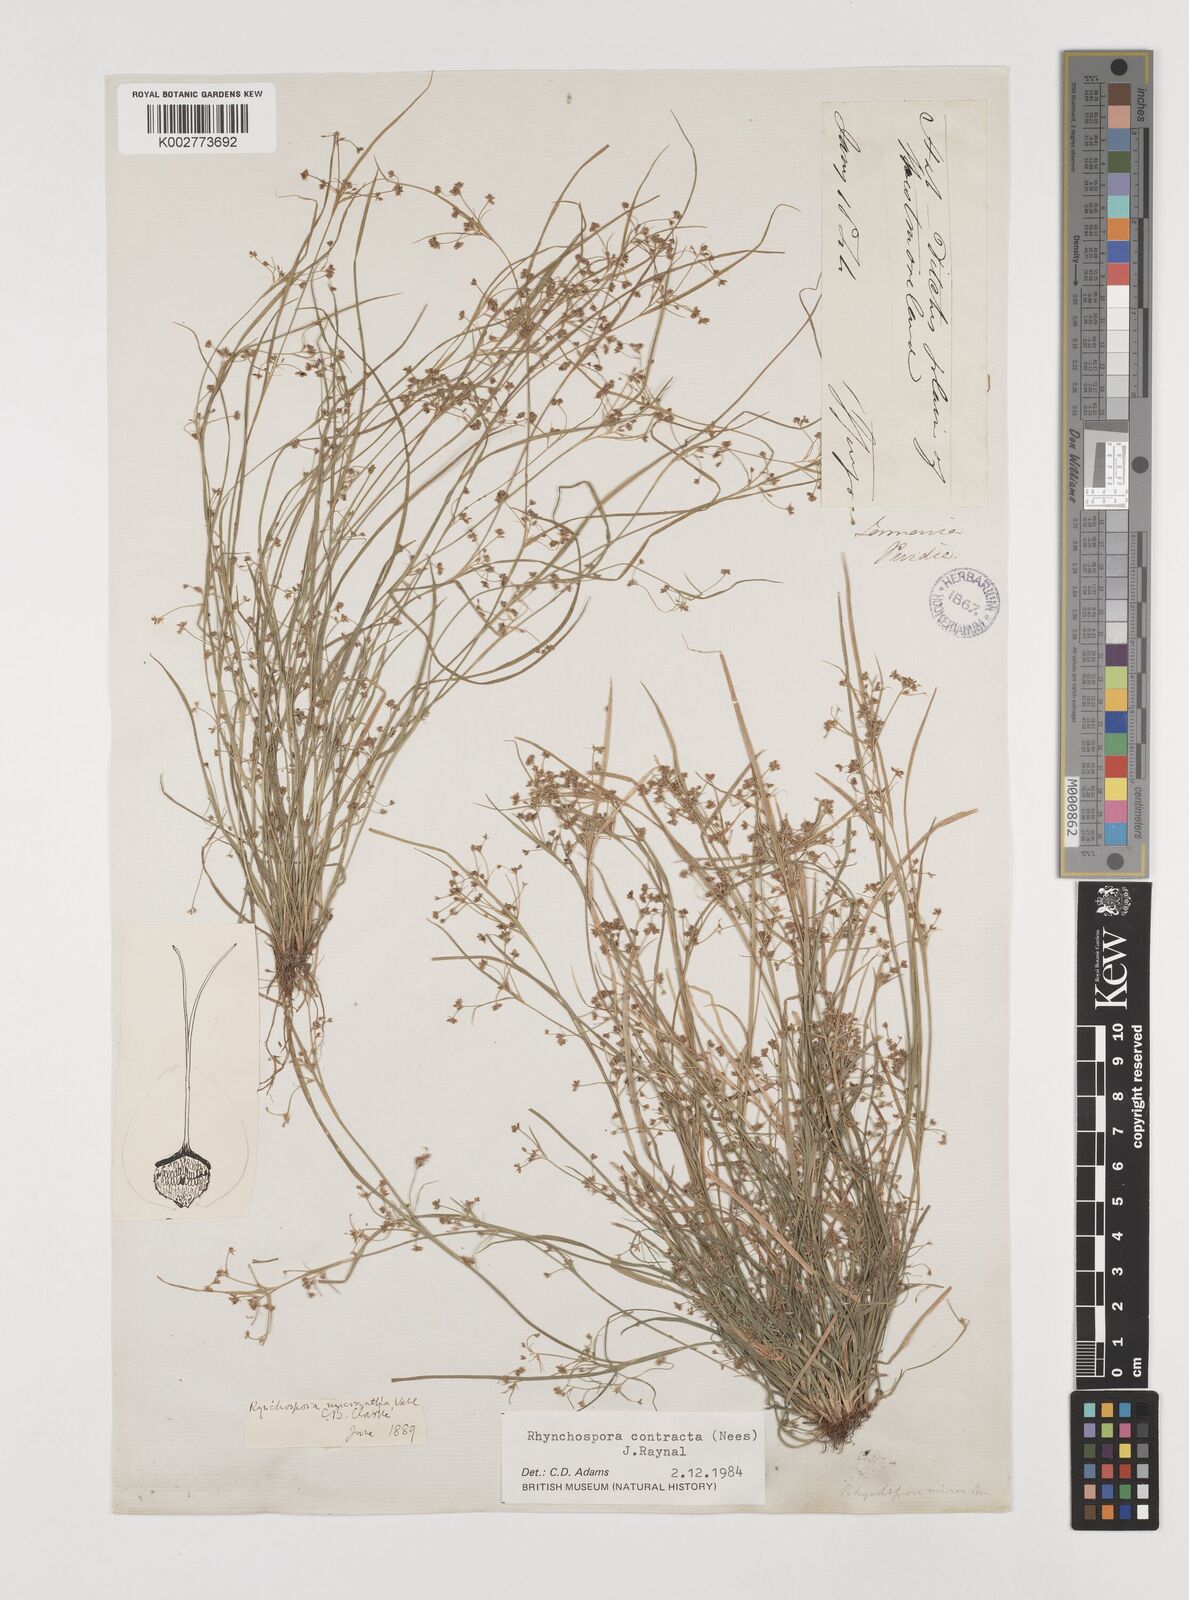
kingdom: Plantae
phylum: Tracheophyta
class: Liliopsida
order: Poales
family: Cyperaceae
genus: Rhynchospora
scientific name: Rhynchospora contracta
